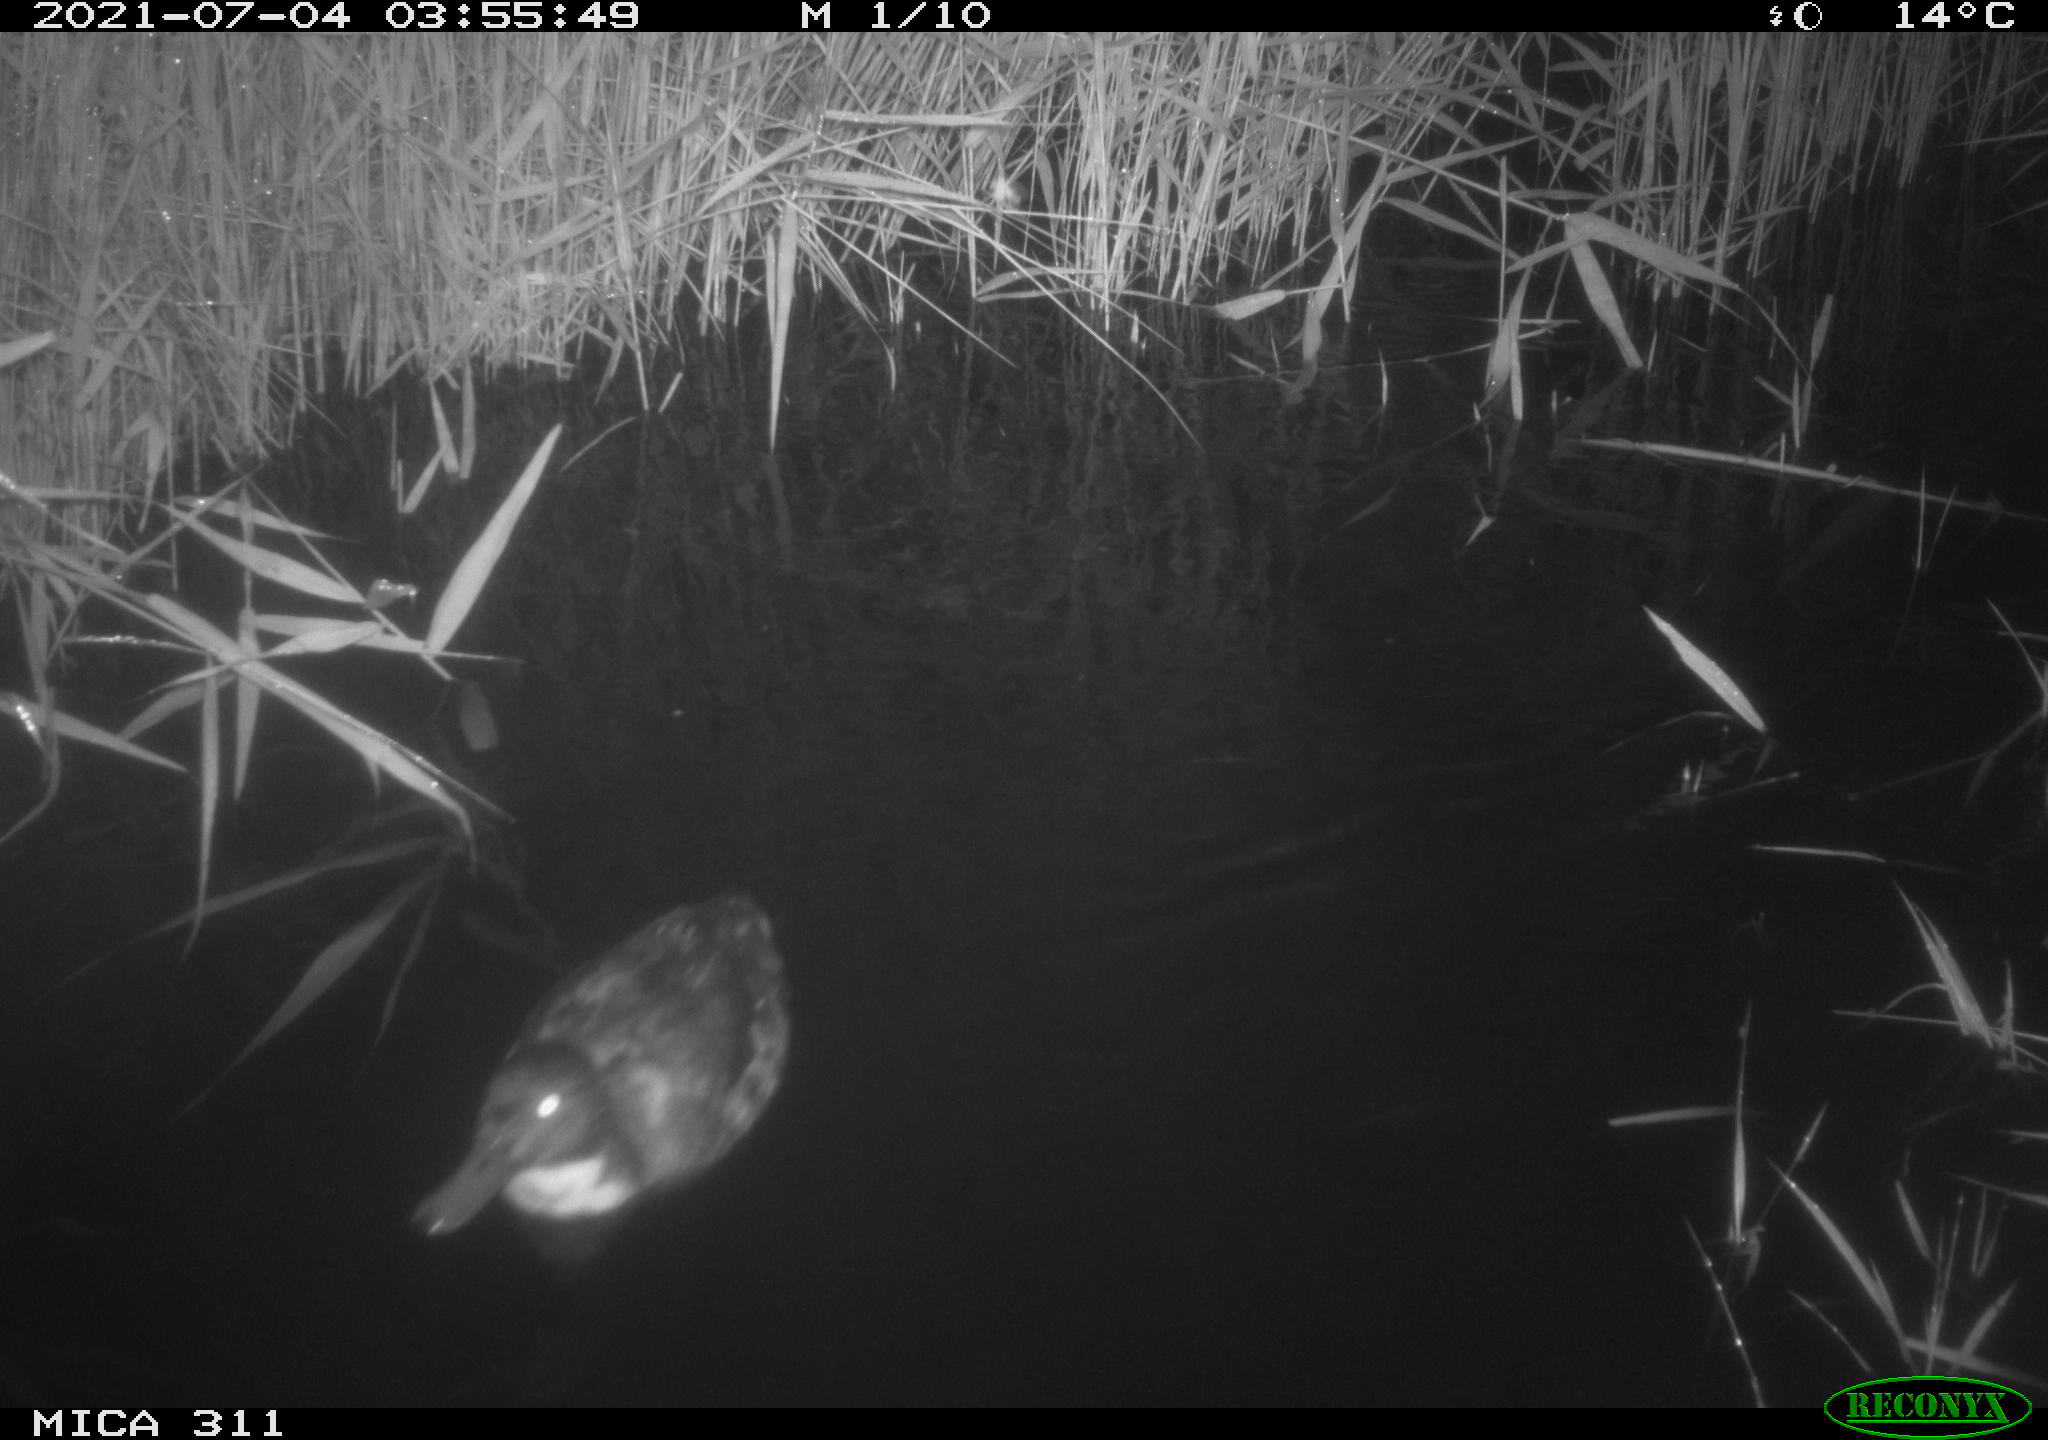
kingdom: Animalia
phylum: Chordata
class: Aves
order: Anseriformes
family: Anatidae
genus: Anas
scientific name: Anas
